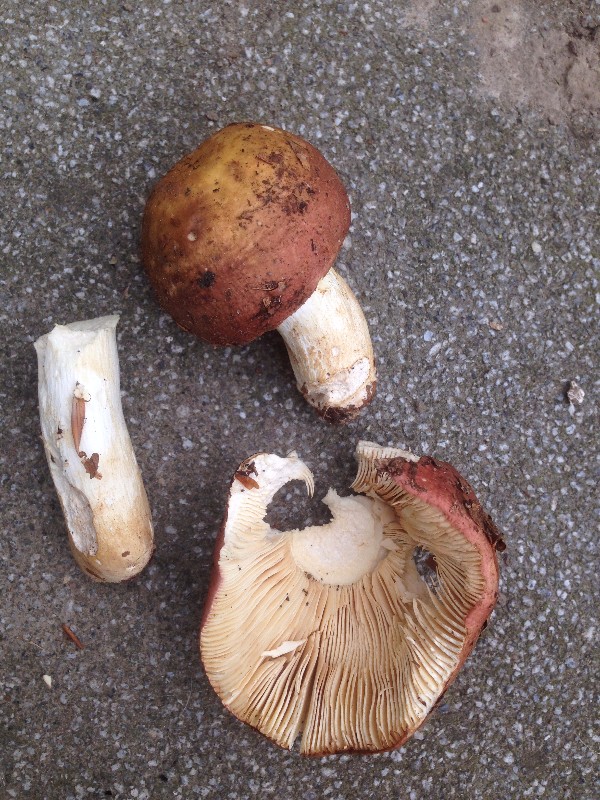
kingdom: Fungi
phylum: Basidiomycota
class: Agaricomycetes
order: Russulales
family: Russulaceae
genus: Russula
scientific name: Russula faginea
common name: bøge-skørhat
